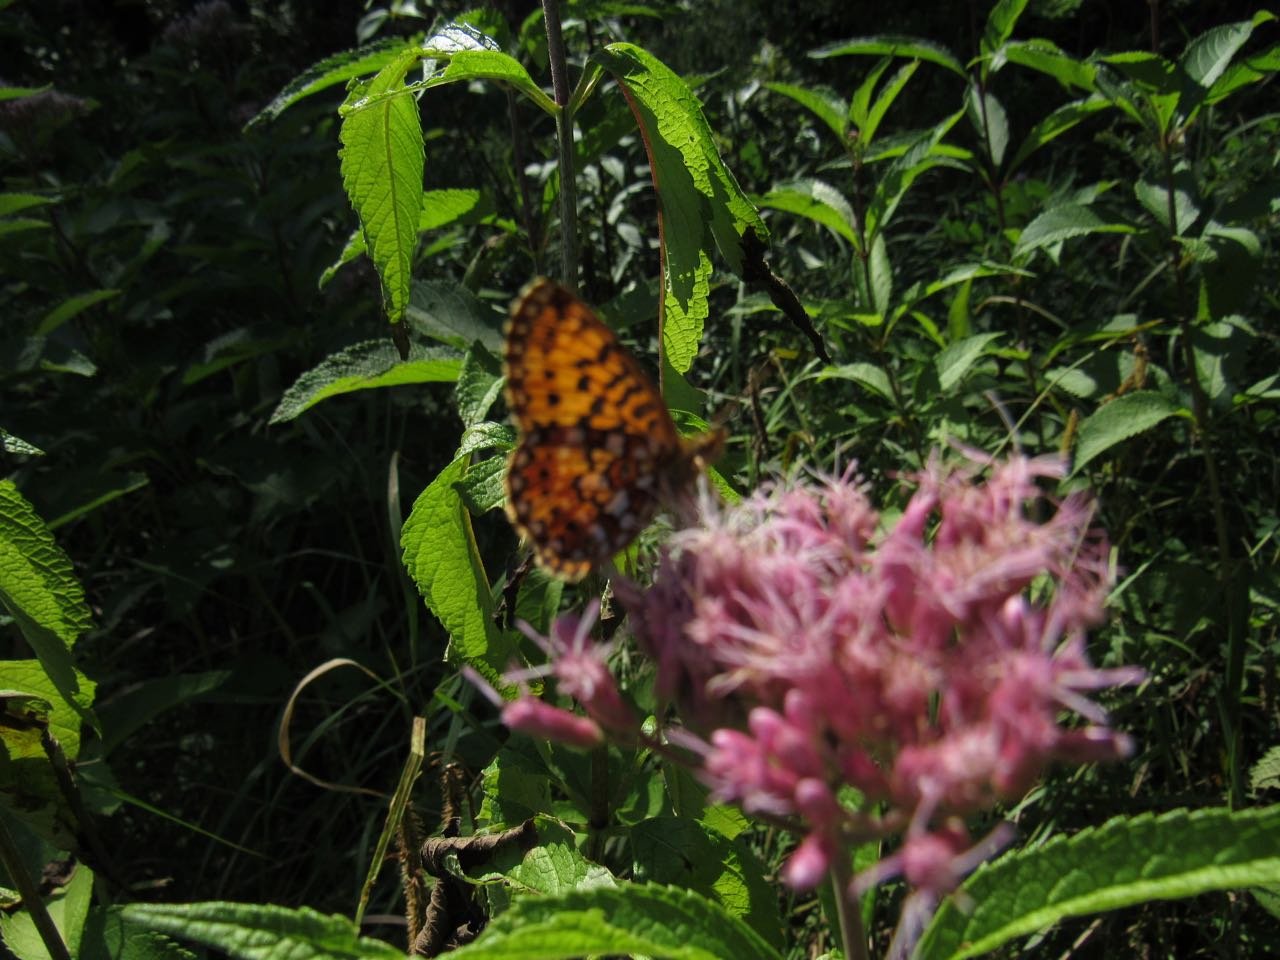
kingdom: Animalia
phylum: Arthropoda
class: Insecta
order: Lepidoptera
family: Nymphalidae
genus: Boloria
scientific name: Boloria selene
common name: Silver-bordered Fritillary
